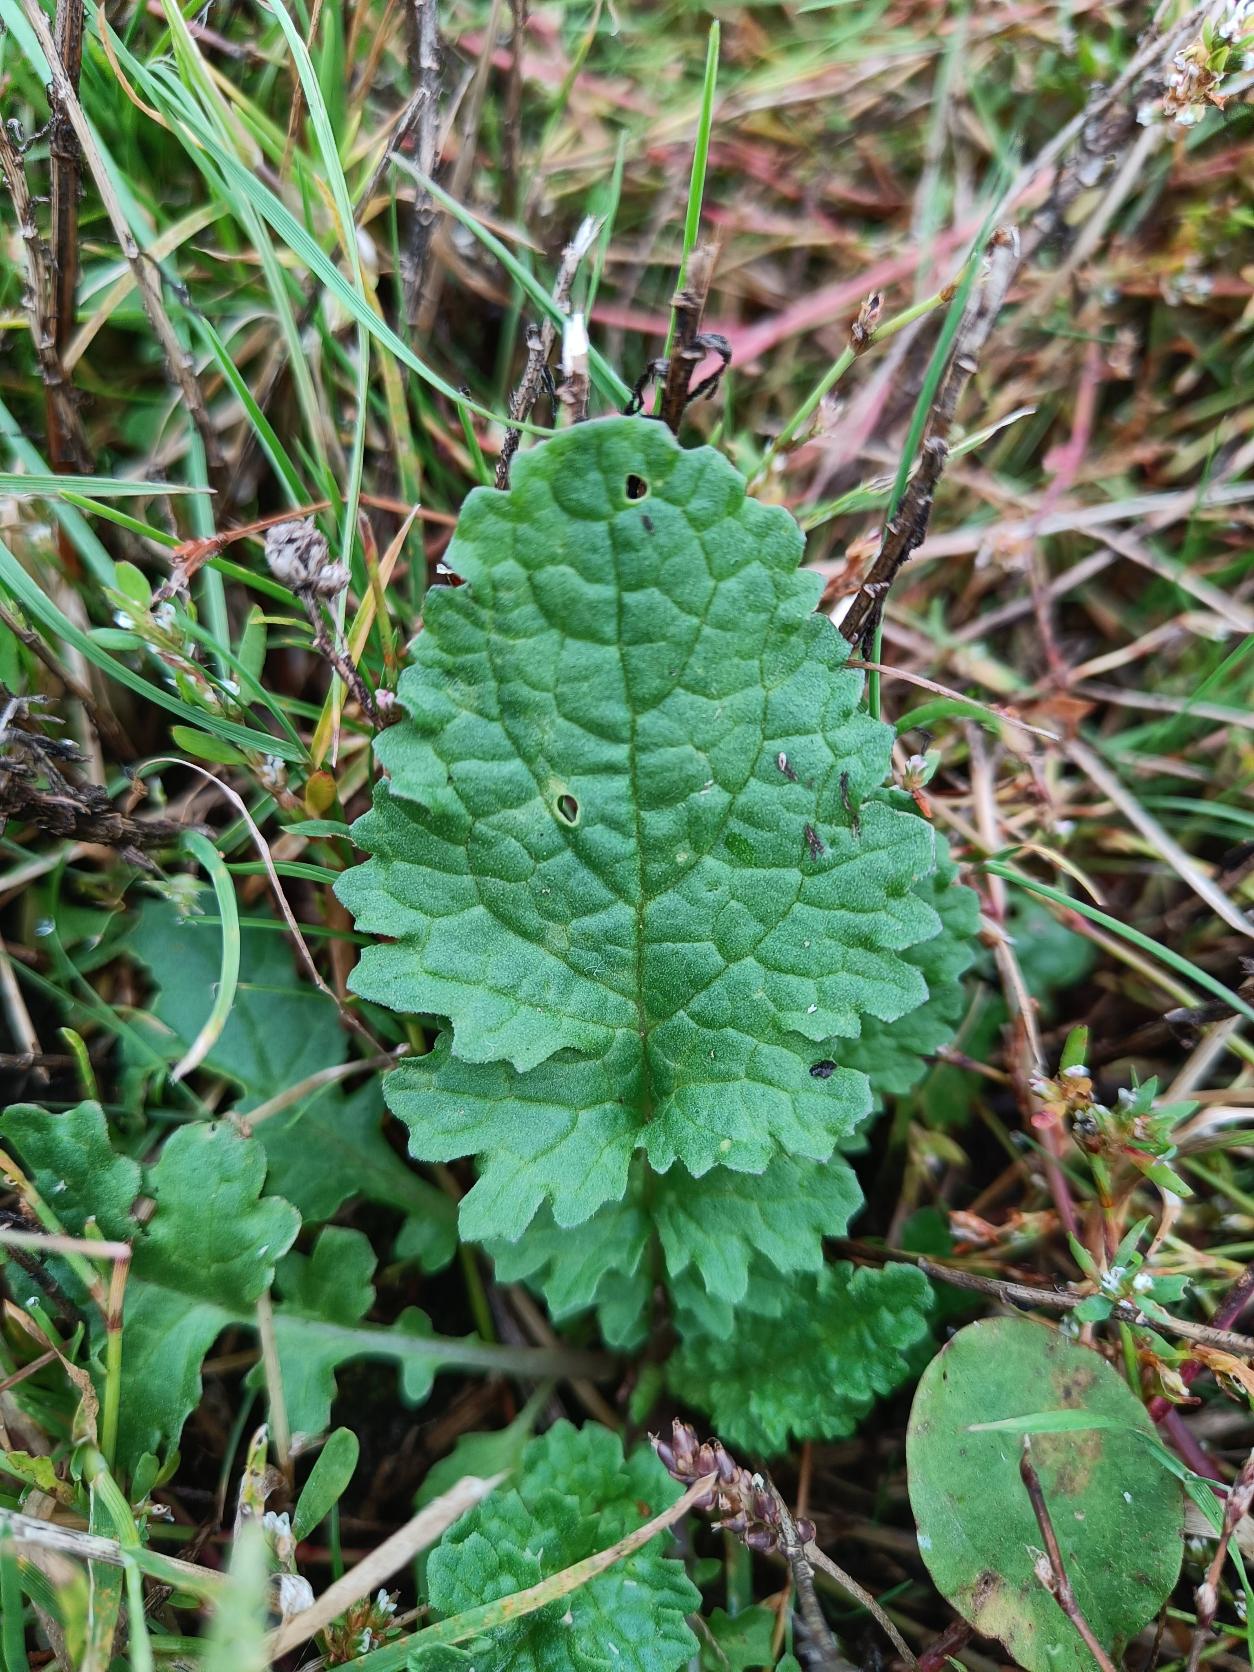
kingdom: Plantae
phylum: Tracheophyta
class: Magnoliopsida
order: Asterales
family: Asteraceae
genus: Jacobaea
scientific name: Jacobaea vulgaris
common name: Eng-brandbæger
